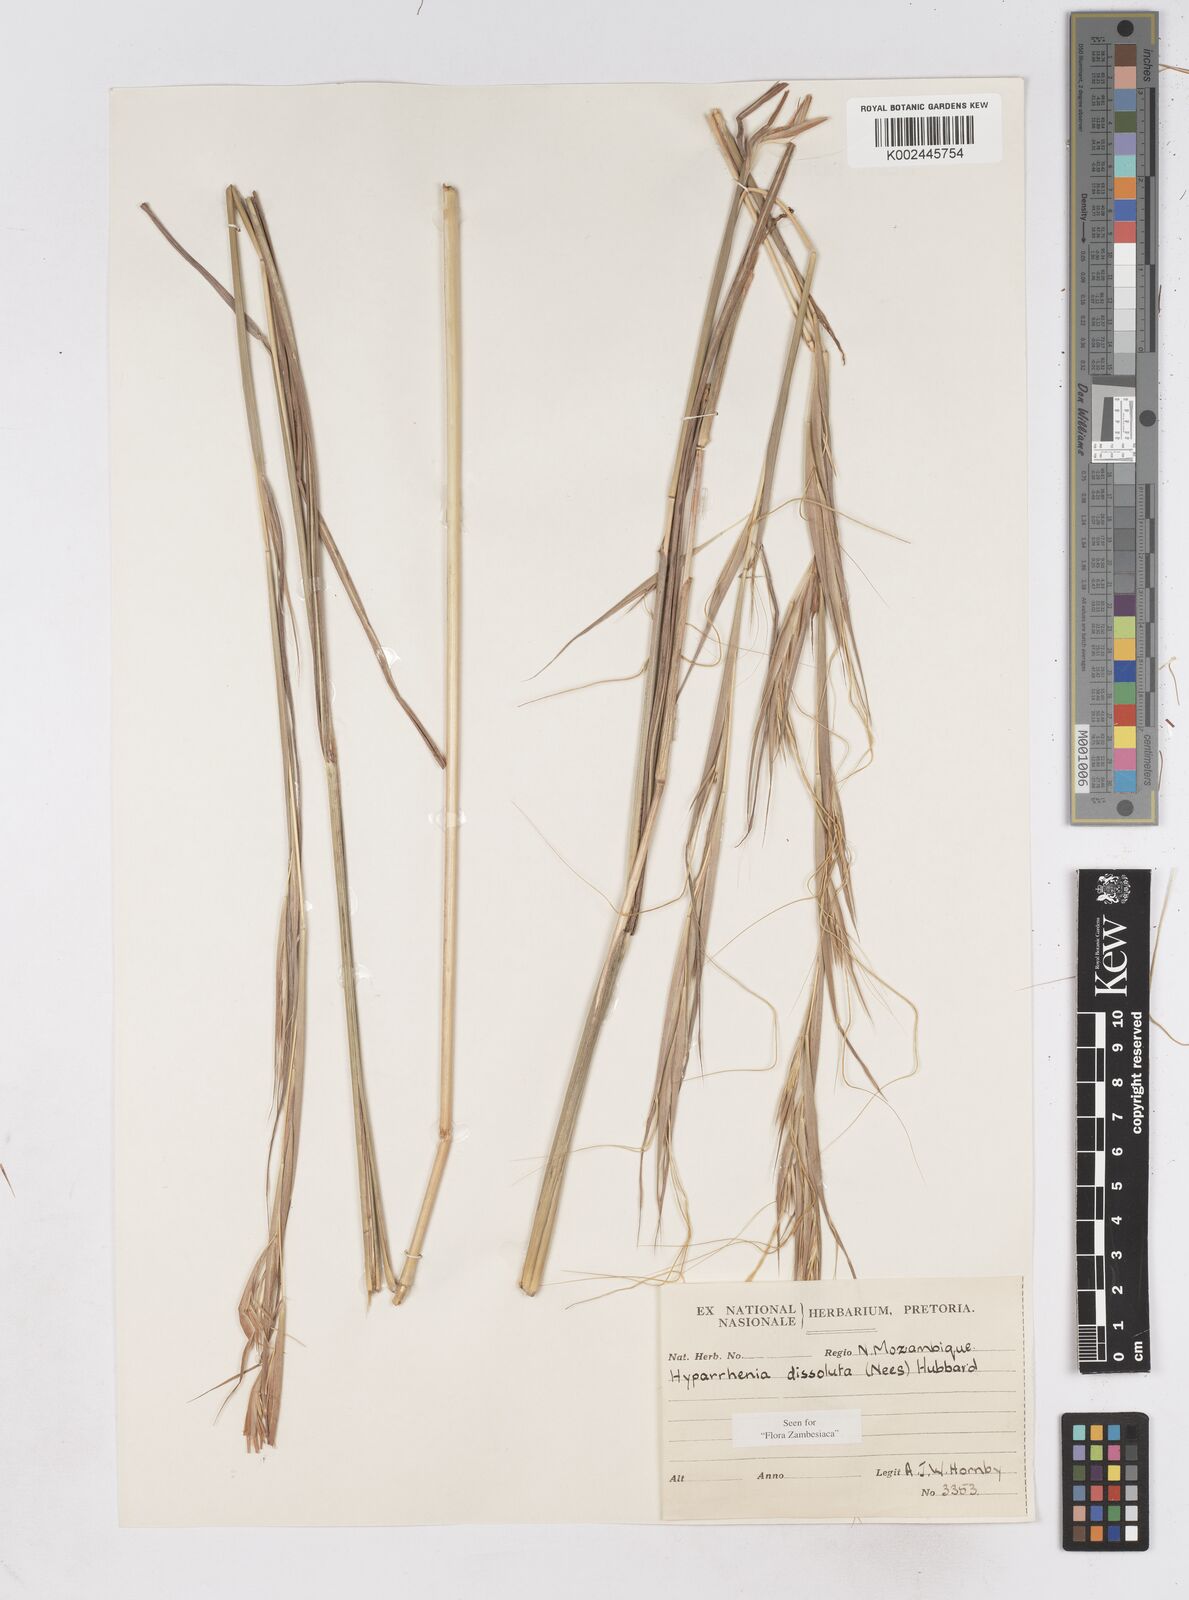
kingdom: Plantae
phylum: Tracheophyta
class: Liliopsida
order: Poales
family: Poaceae
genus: Hyperthelia
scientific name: Hyperthelia dissoluta
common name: Yellow thatching grass
